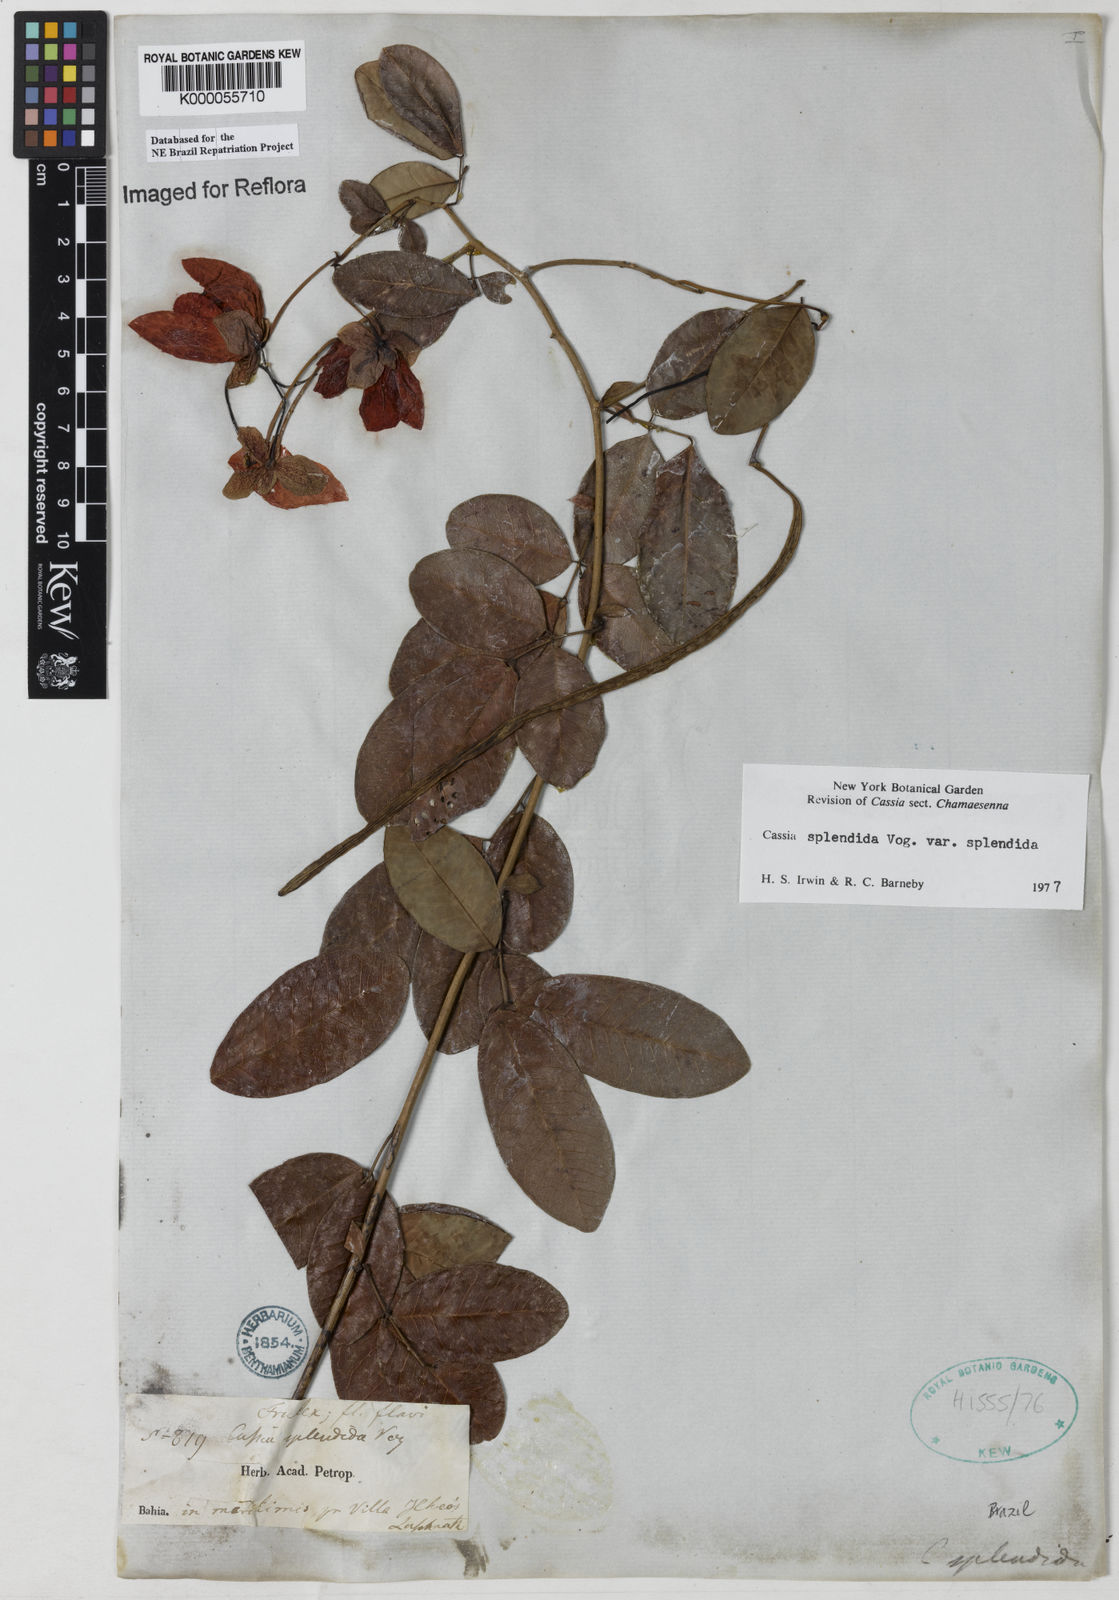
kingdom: Plantae
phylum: Tracheophyta
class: Magnoliopsida
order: Fabales
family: Fabaceae
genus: Senna
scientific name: Senna splendida
